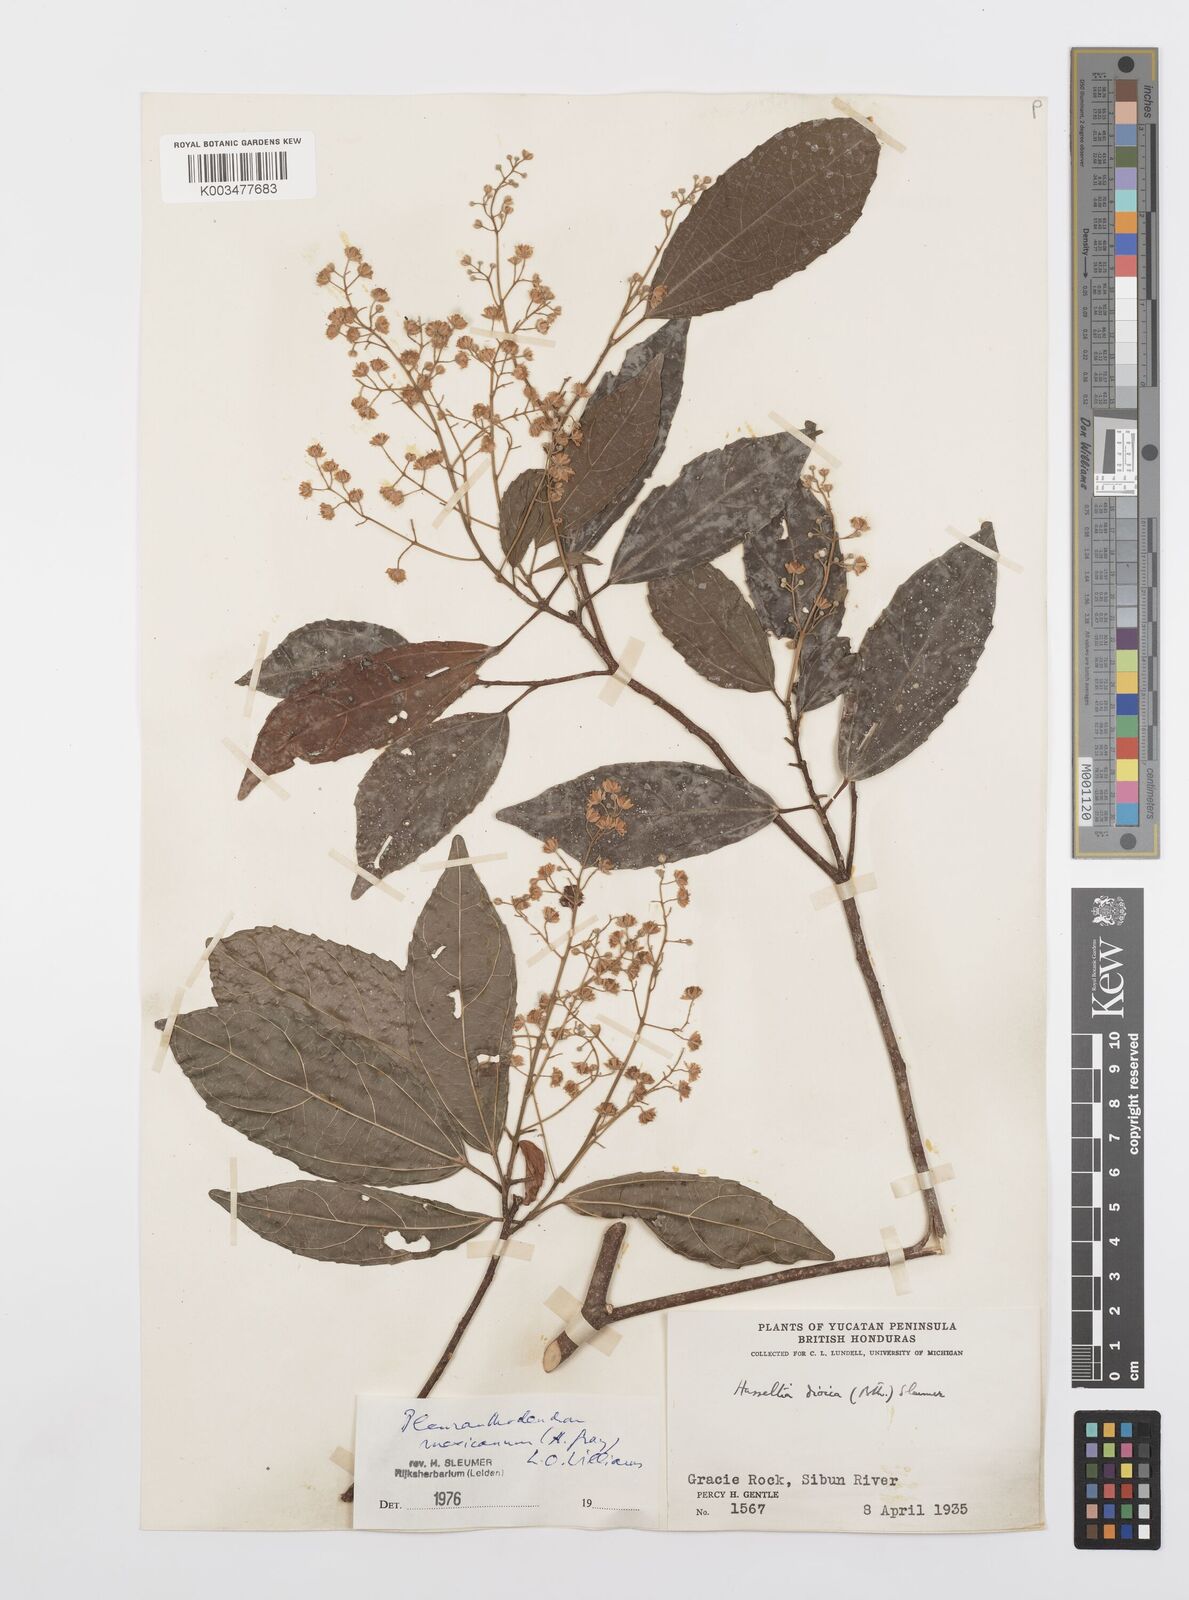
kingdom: Plantae
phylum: Tracheophyta
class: Magnoliopsida
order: Malpighiales
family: Salicaceae
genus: Pleuranthodendron
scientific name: Pleuranthodendron lindenii
